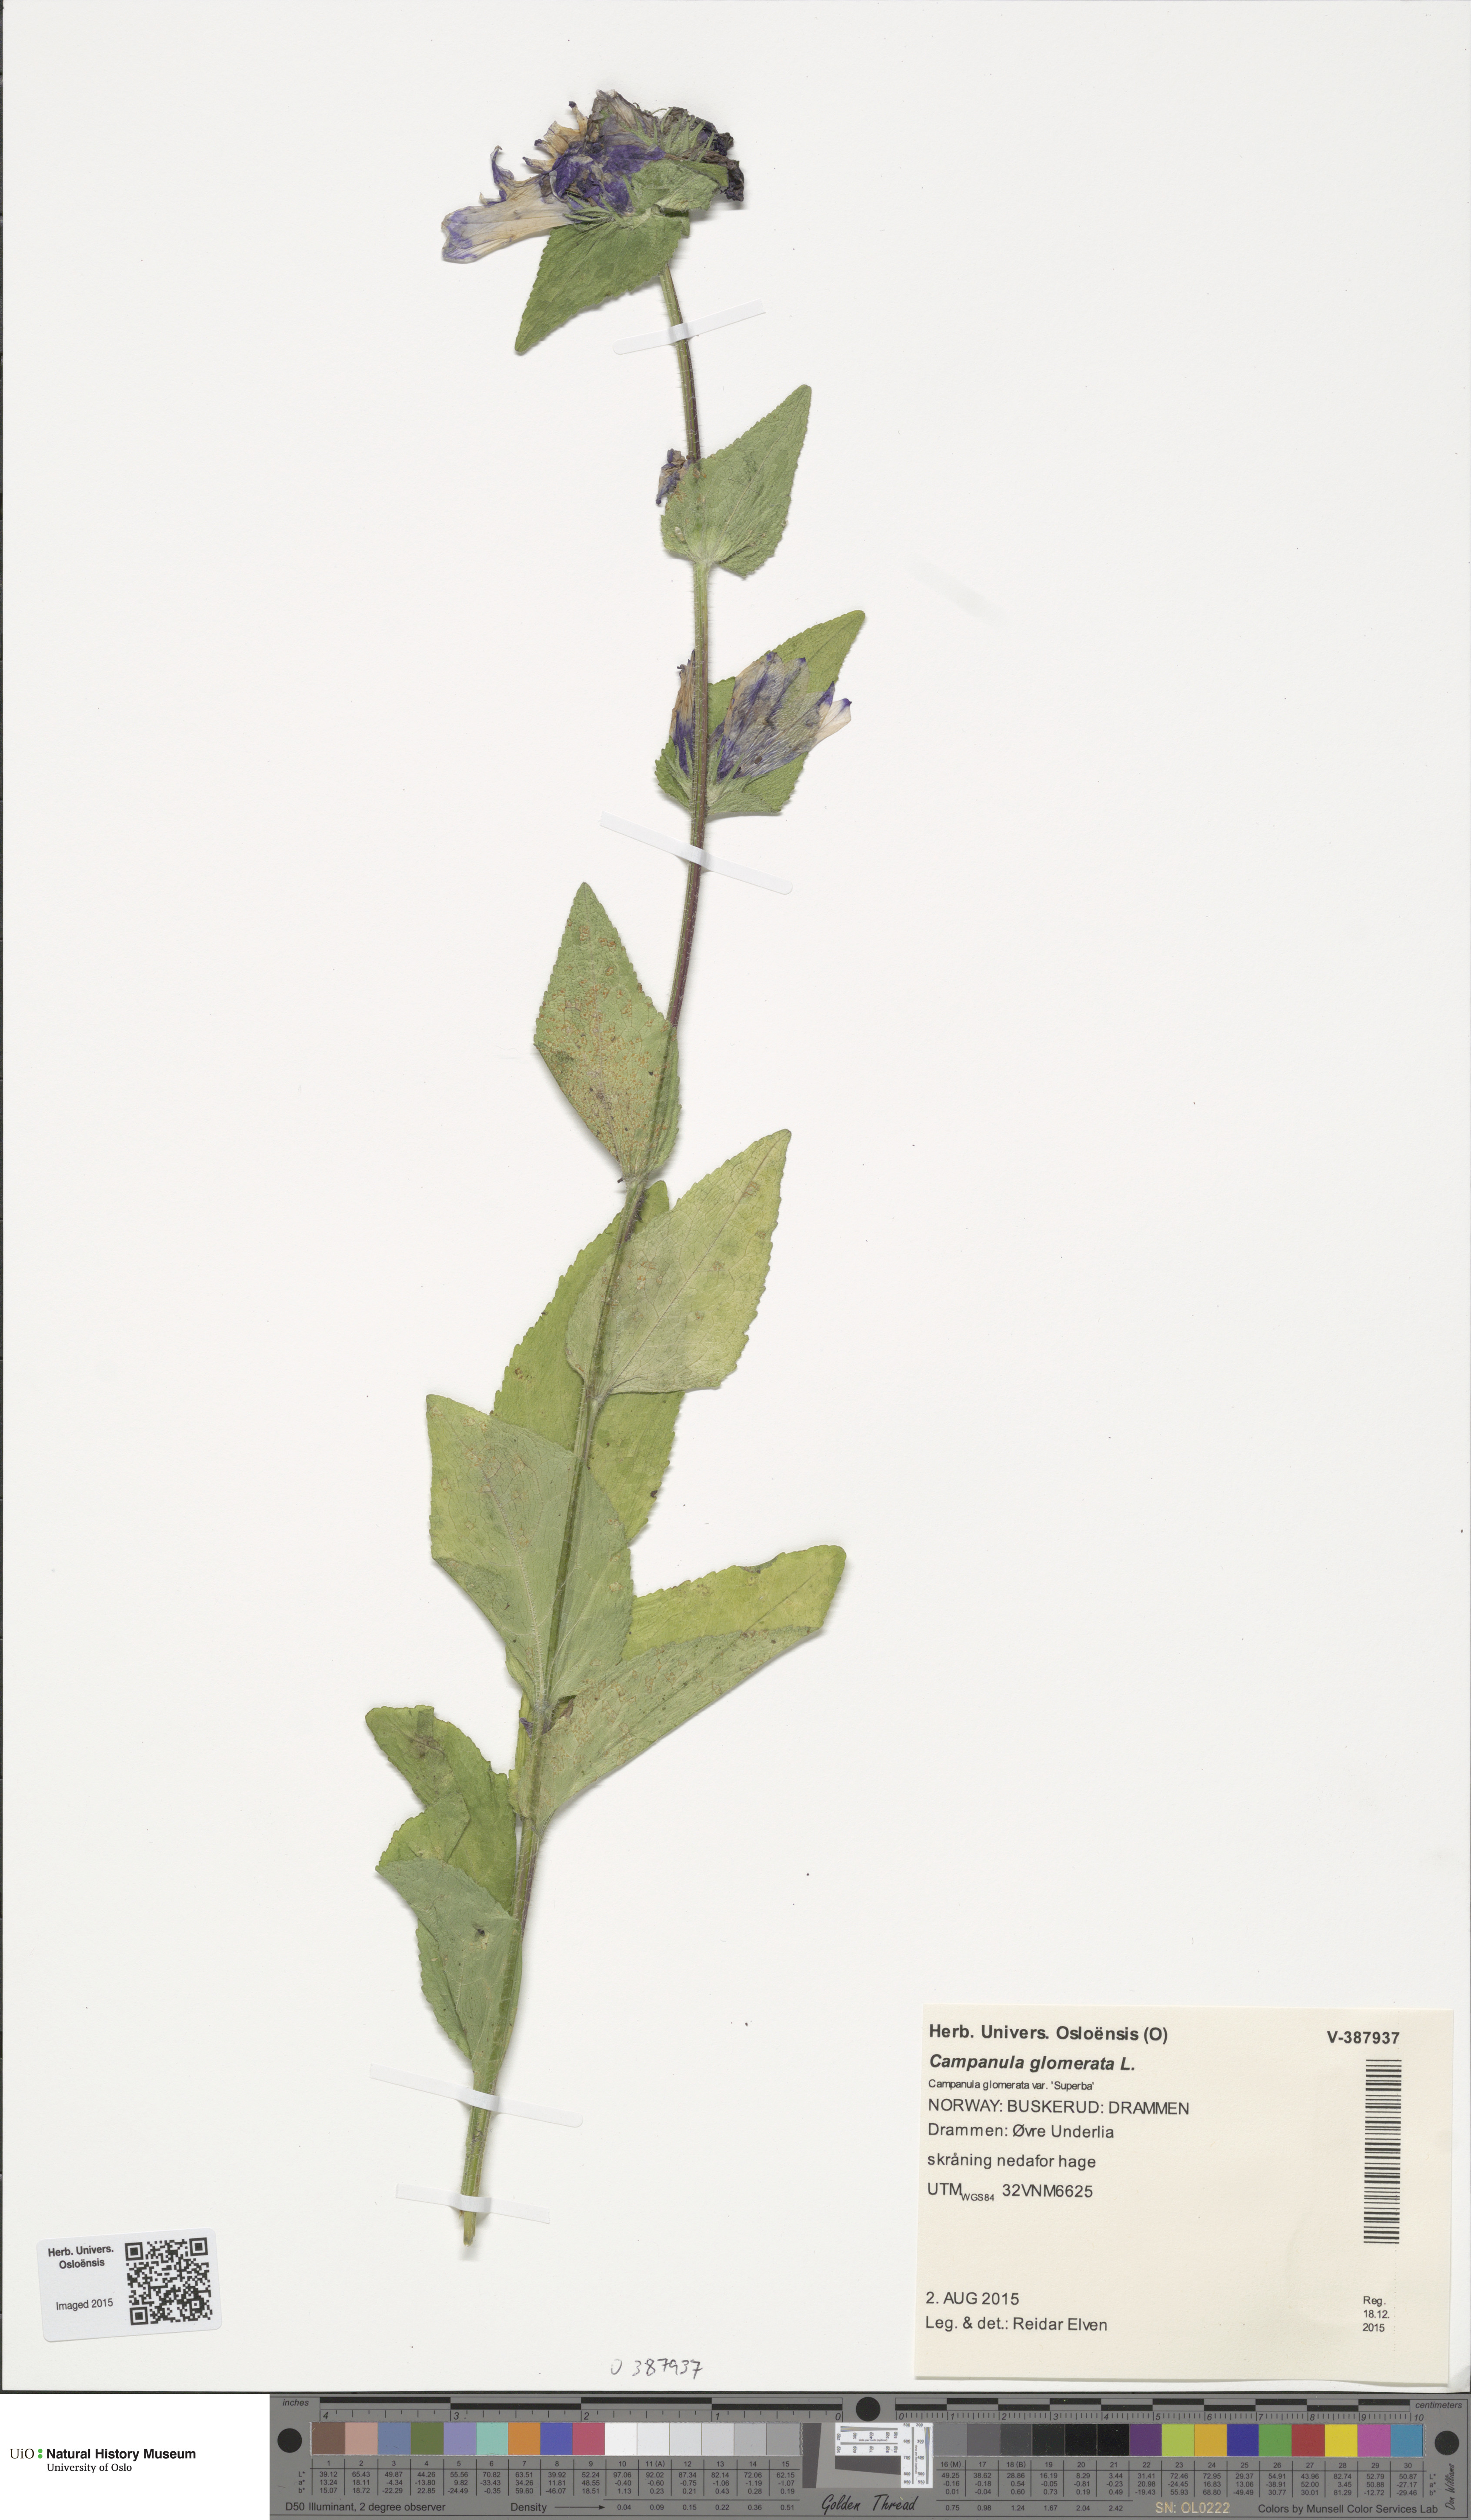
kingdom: Plantae
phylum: Tracheophyta
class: Magnoliopsida
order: Asterales
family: Campanulaceae
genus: Campanula
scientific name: Campanula glomerata
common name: Clustered bellflower
